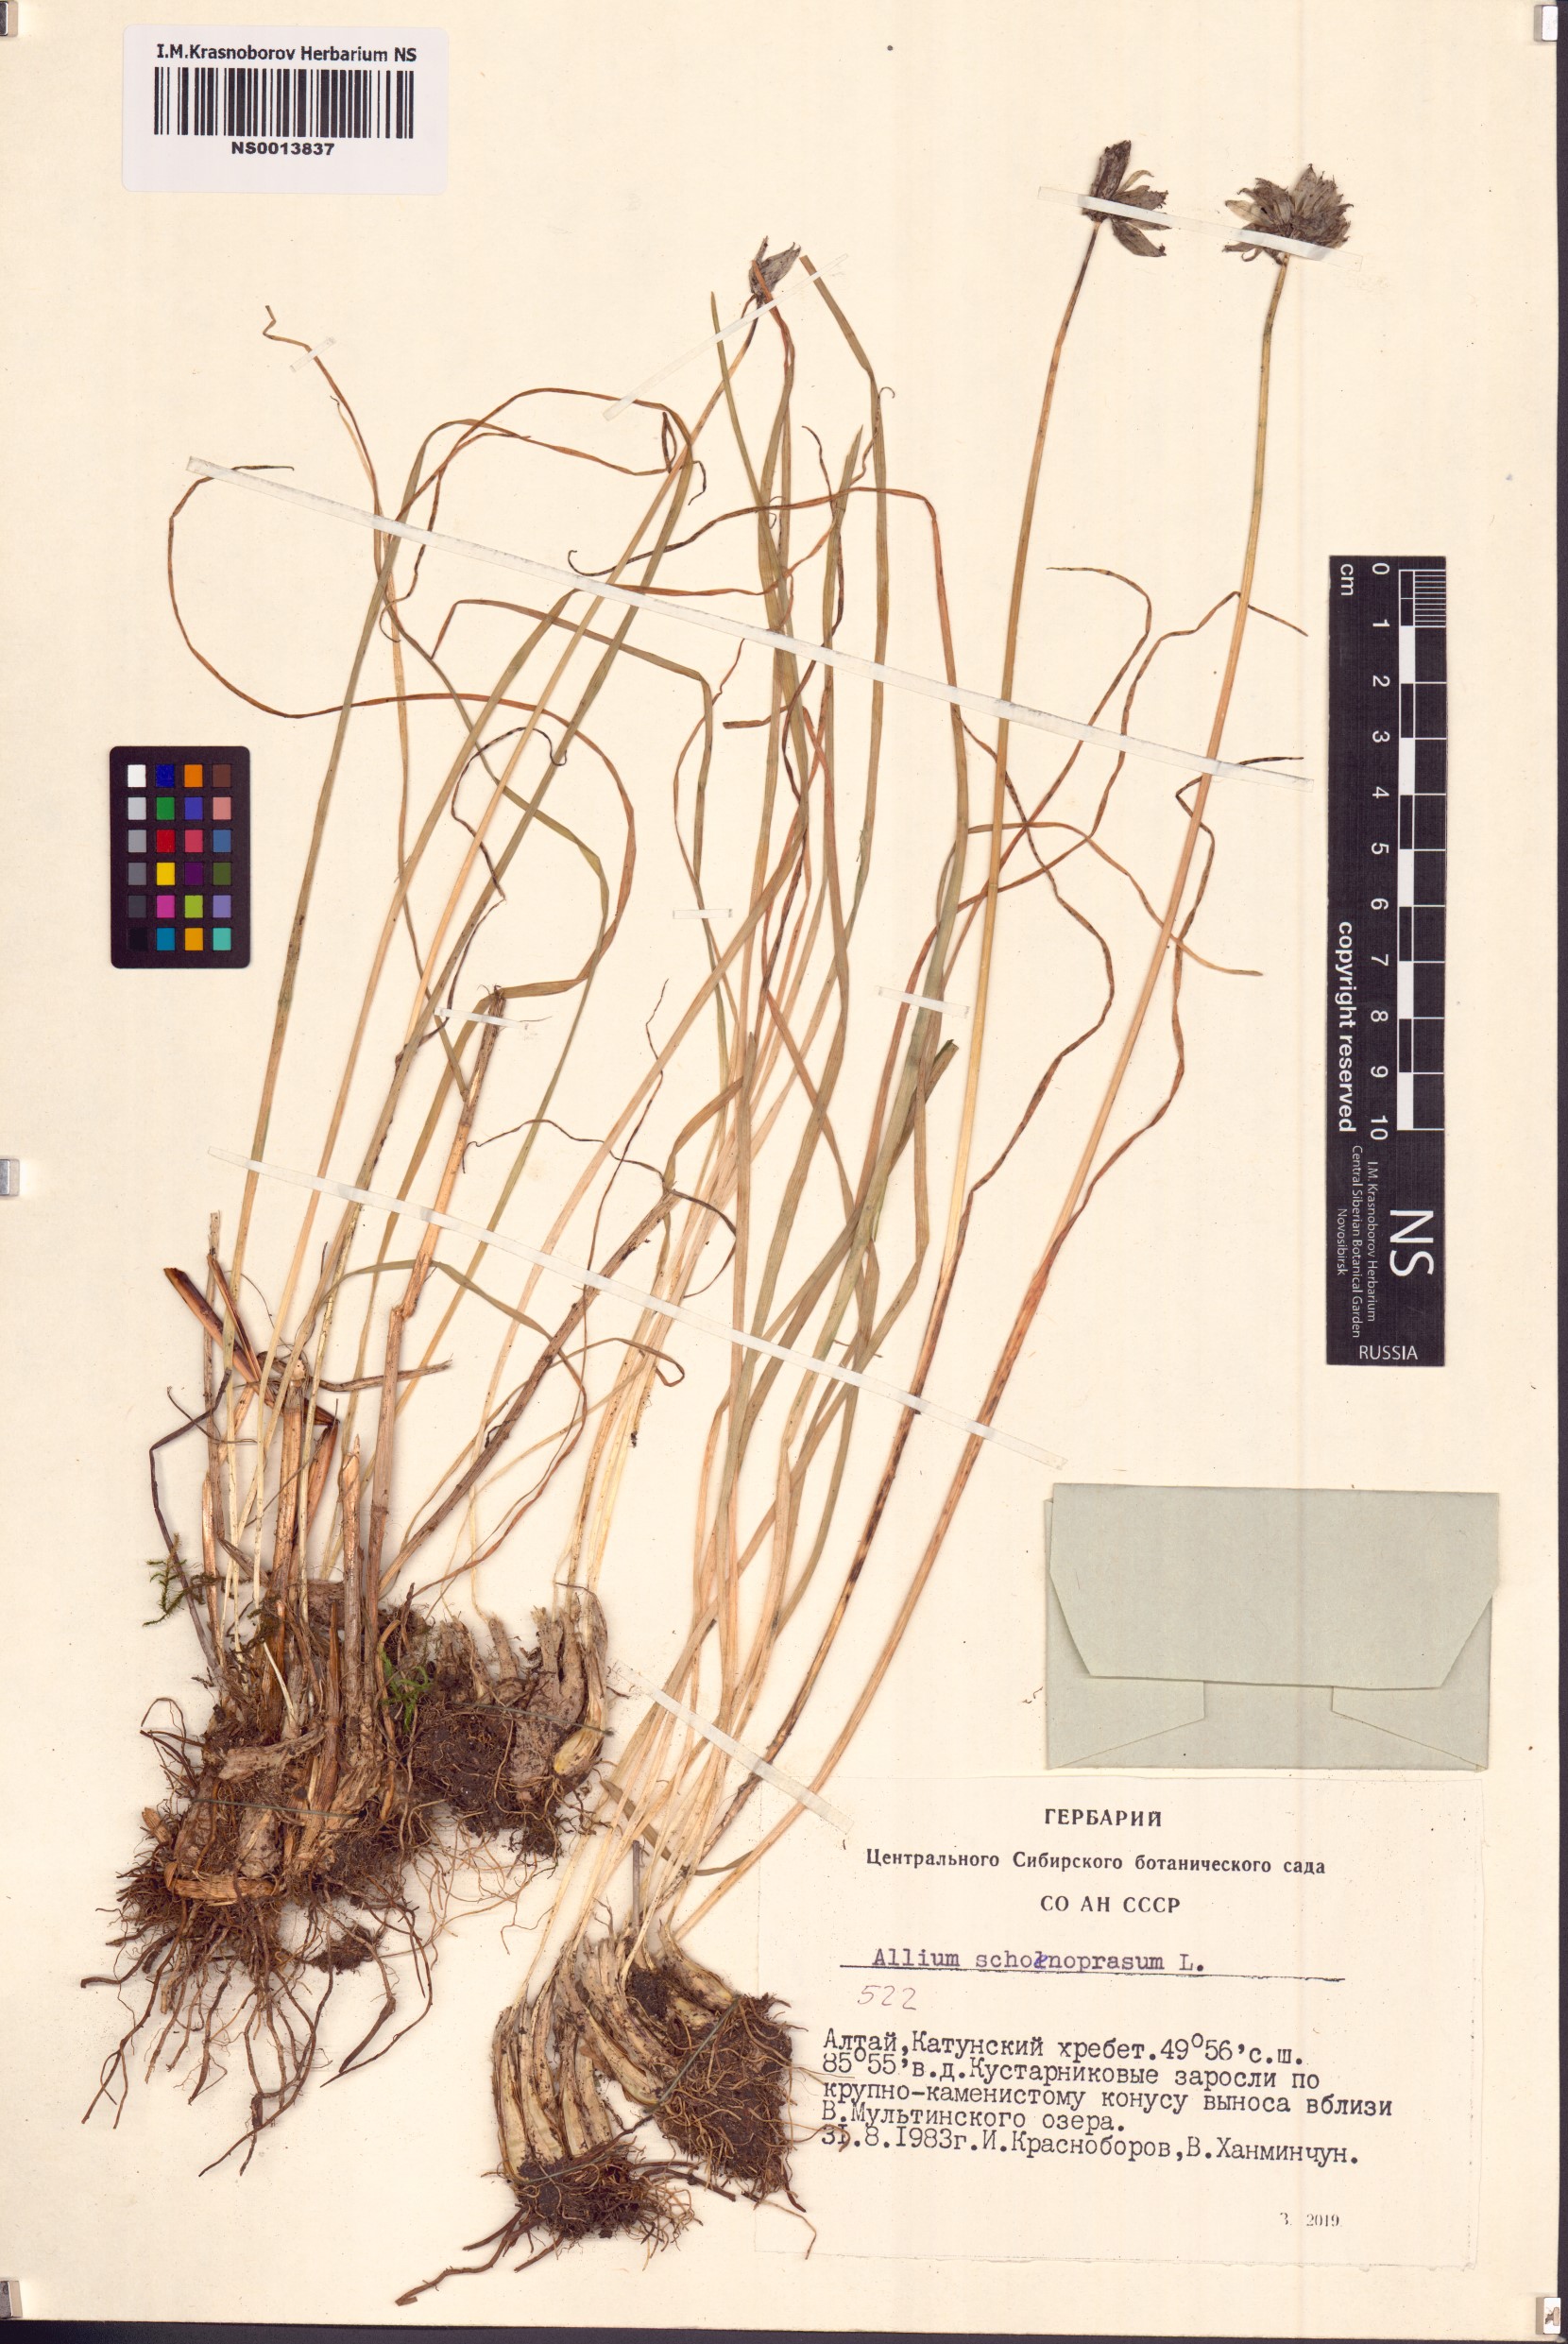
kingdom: Plantae
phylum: Tracheophyta
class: Liliopsida
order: Asparagales
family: Amaryllidaceae
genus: Allium
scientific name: Allium schoenoprasum
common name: Chives
